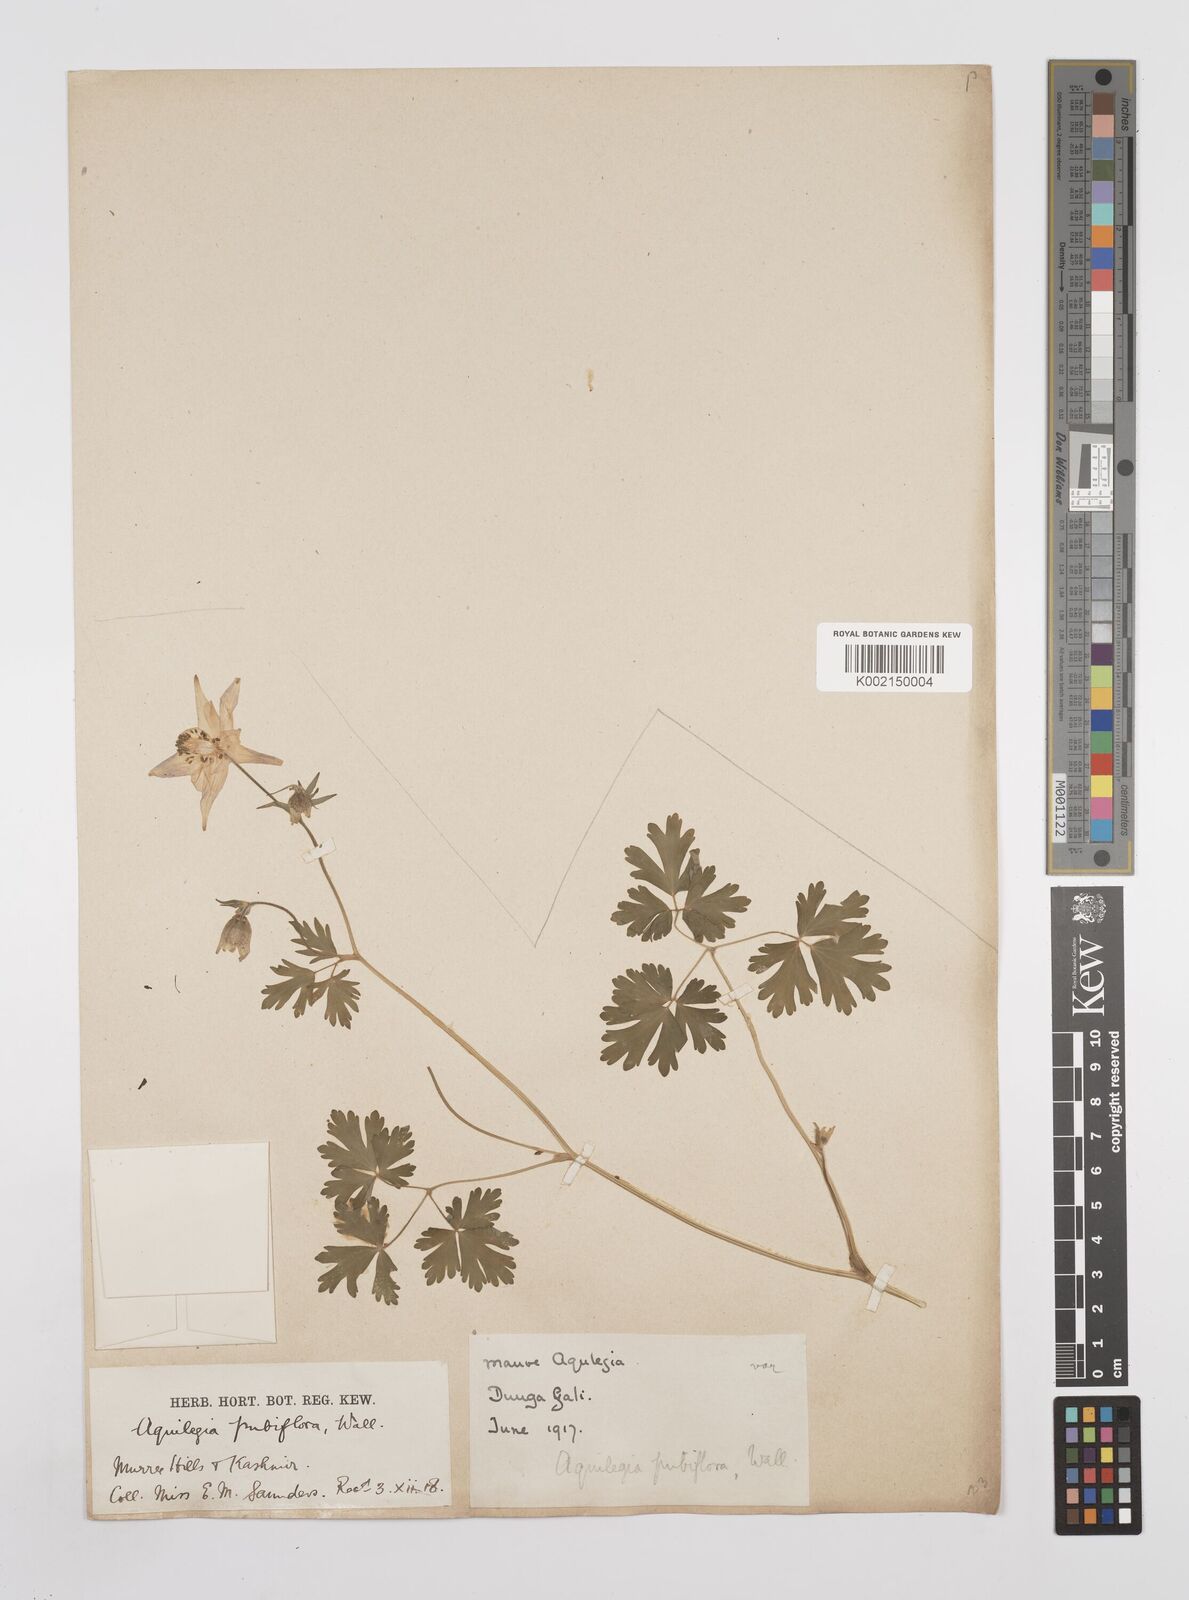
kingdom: Plantae
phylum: Tracheophyta
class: Magnoliopsida
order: Ranunculales
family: Ranunculaceae
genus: Aquilegia
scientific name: Aquilegia pubiflora
